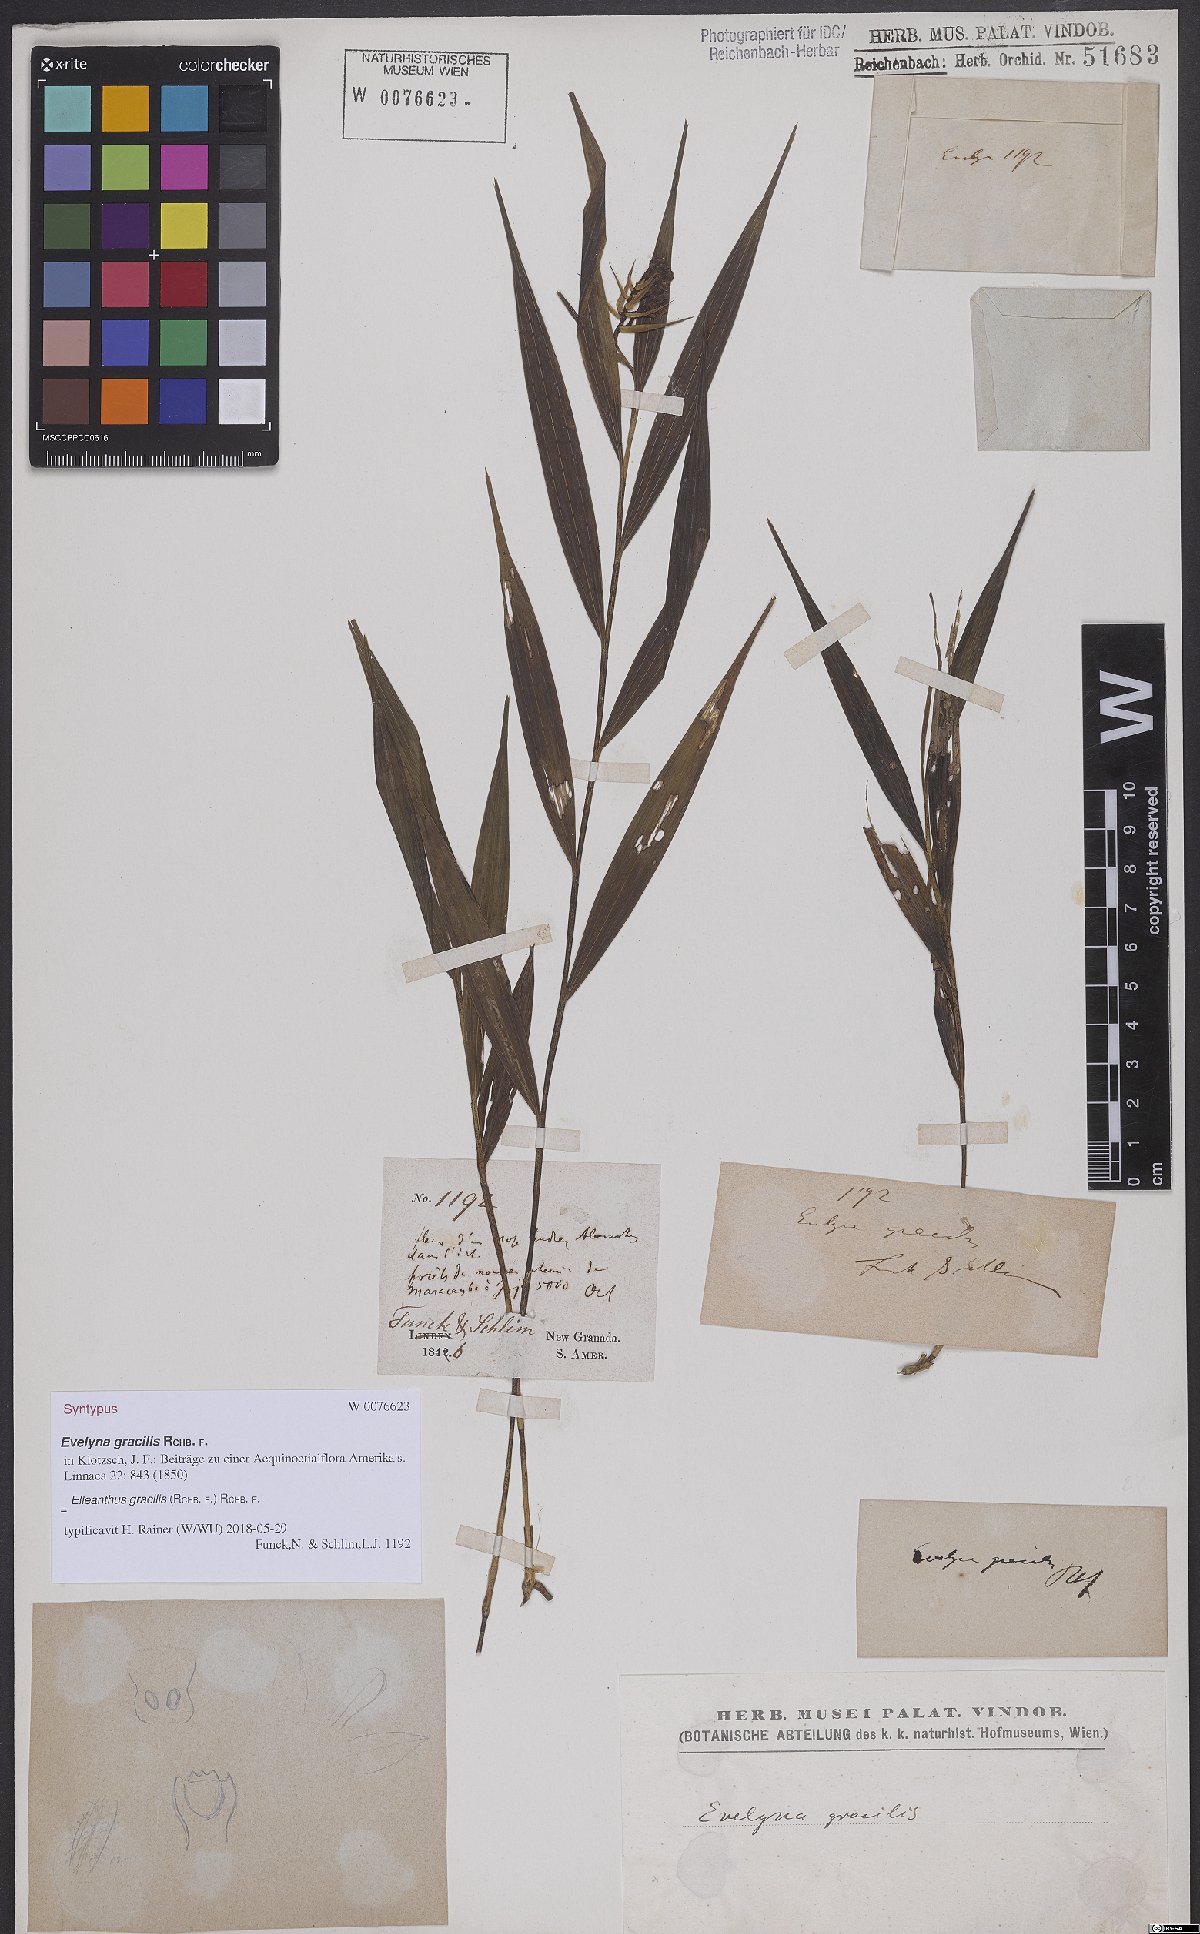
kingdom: Plantae
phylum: Tracheophyta
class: Liliopsida
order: Asparagales
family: Orchidaceae
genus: Elleanthus
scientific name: Elleanthus gracilis
